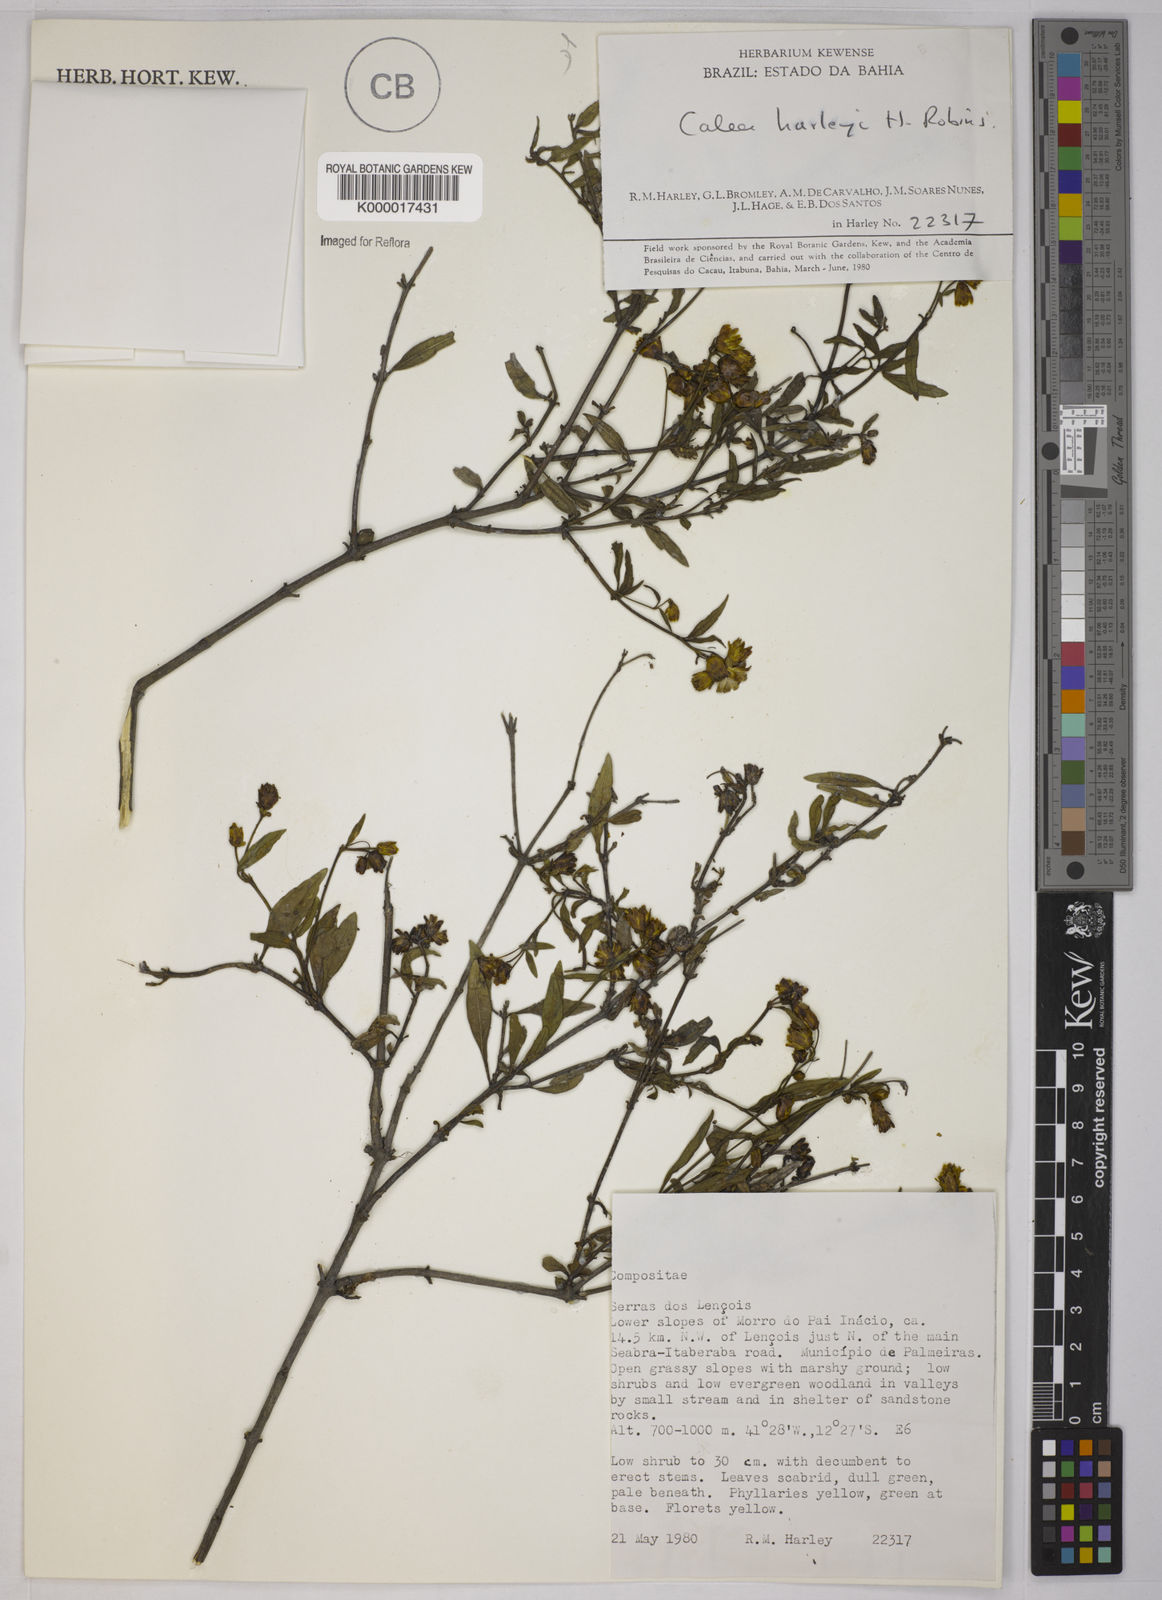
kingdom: Plantae
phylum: Tracheophyta
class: Magnoliopsida
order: Asterales
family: Asteraceae
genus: Calea
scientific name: Calea harleyi
